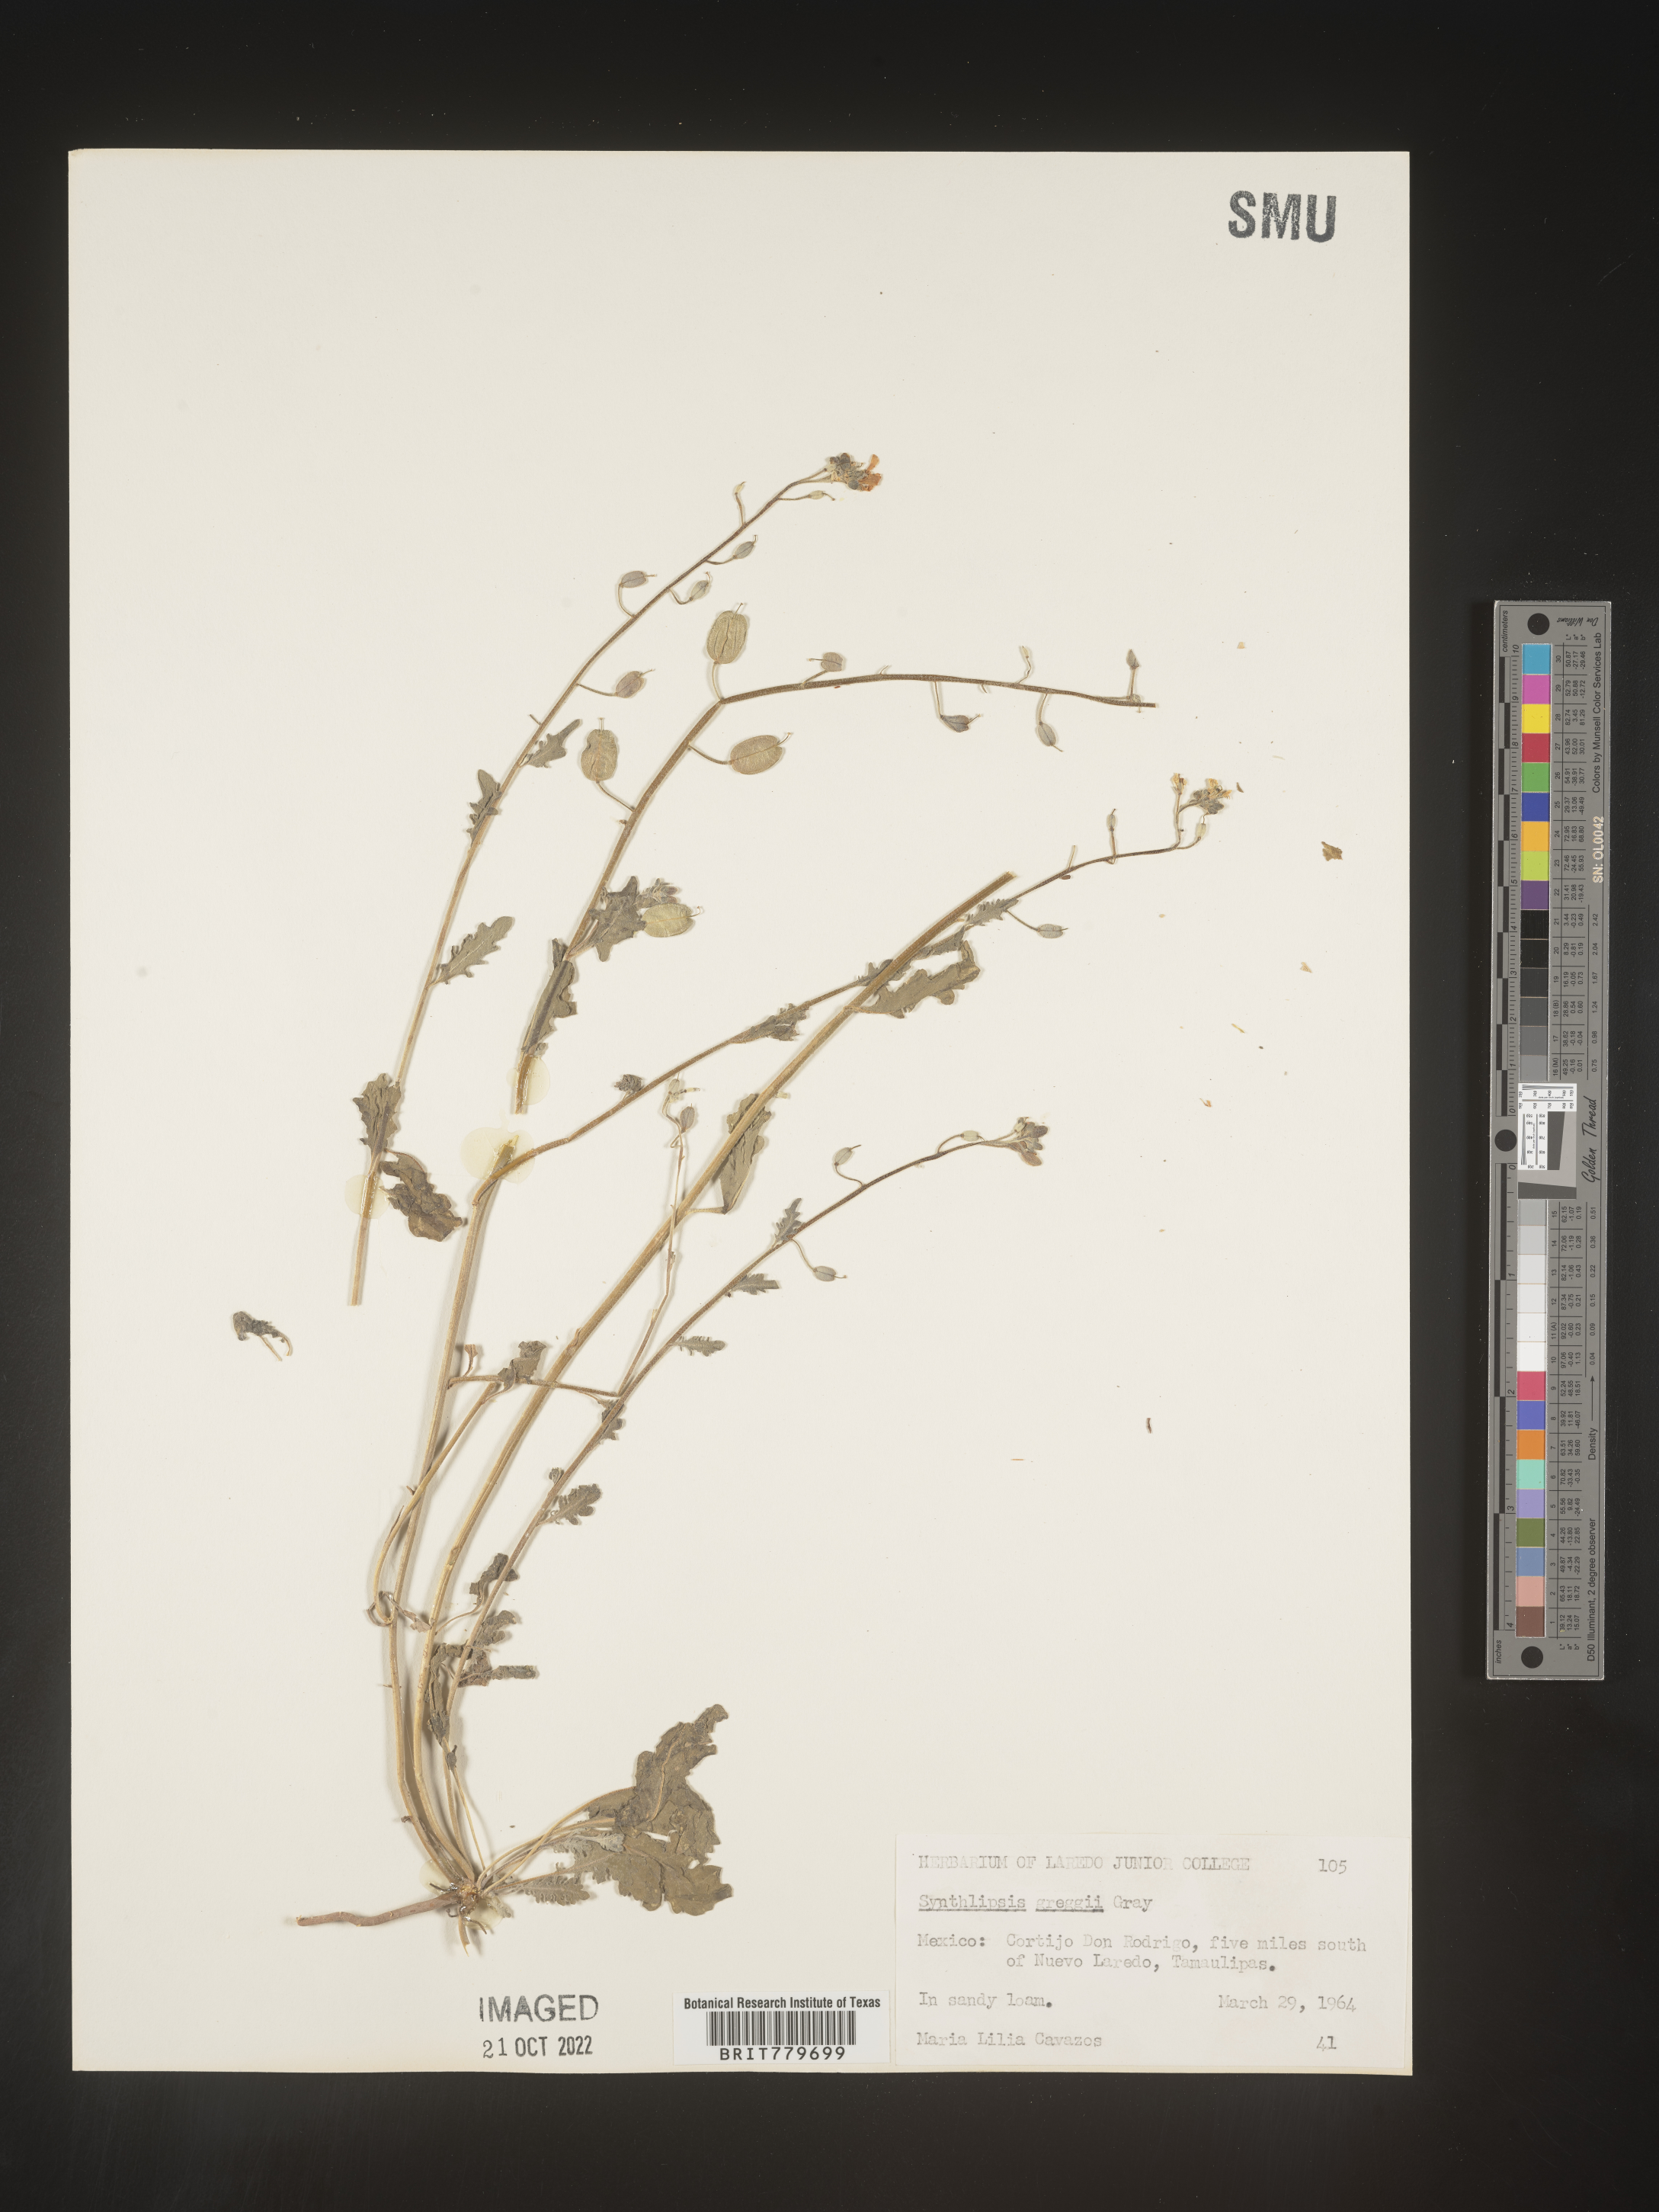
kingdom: Plantae
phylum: Tracheophyta
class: Magnoliopsida
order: Brassicales
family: Brassicaceae
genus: Synthlipsis
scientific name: Synthlipsis
